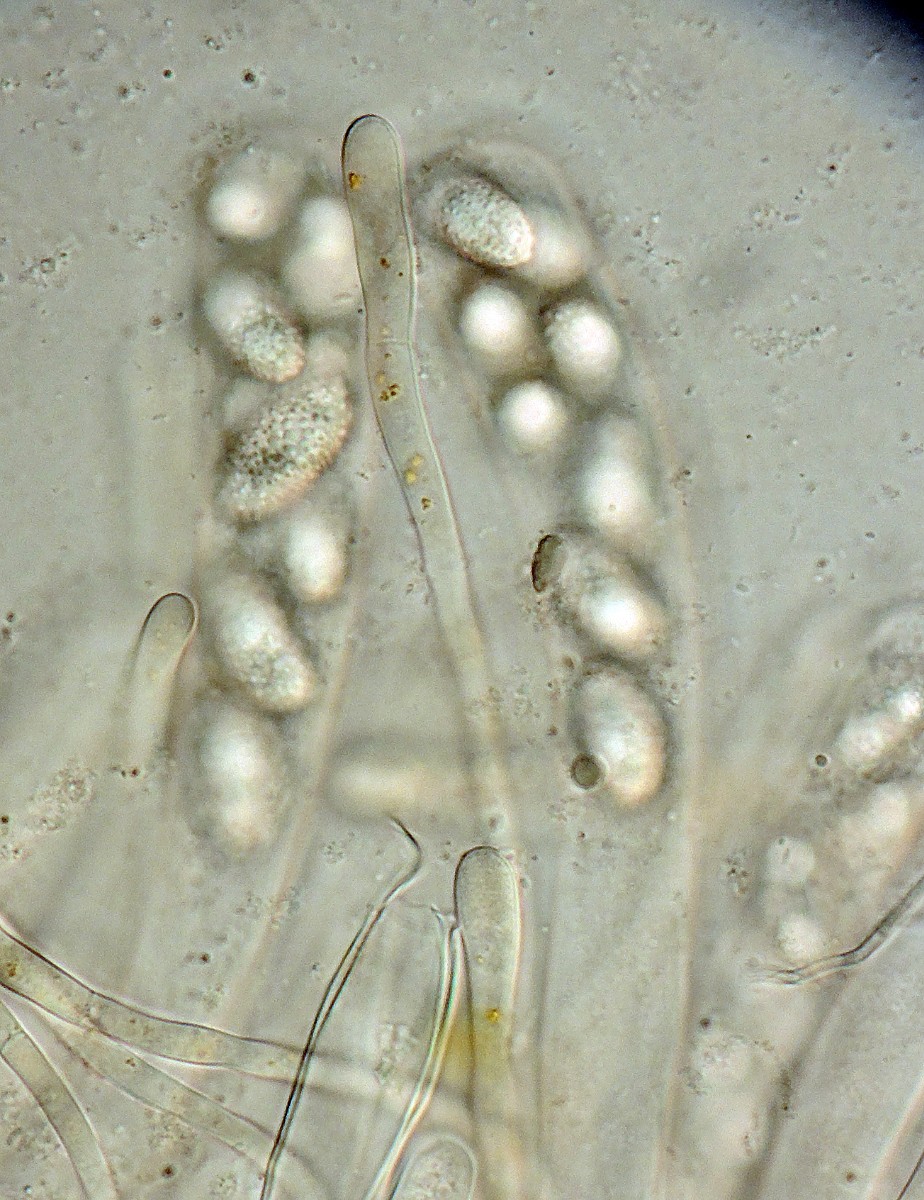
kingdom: Fungi
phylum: Ascomycota
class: Pezizomycetes
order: Pezizales
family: Pyronemataceae
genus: Octospora
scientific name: Octospora orthotrichi
